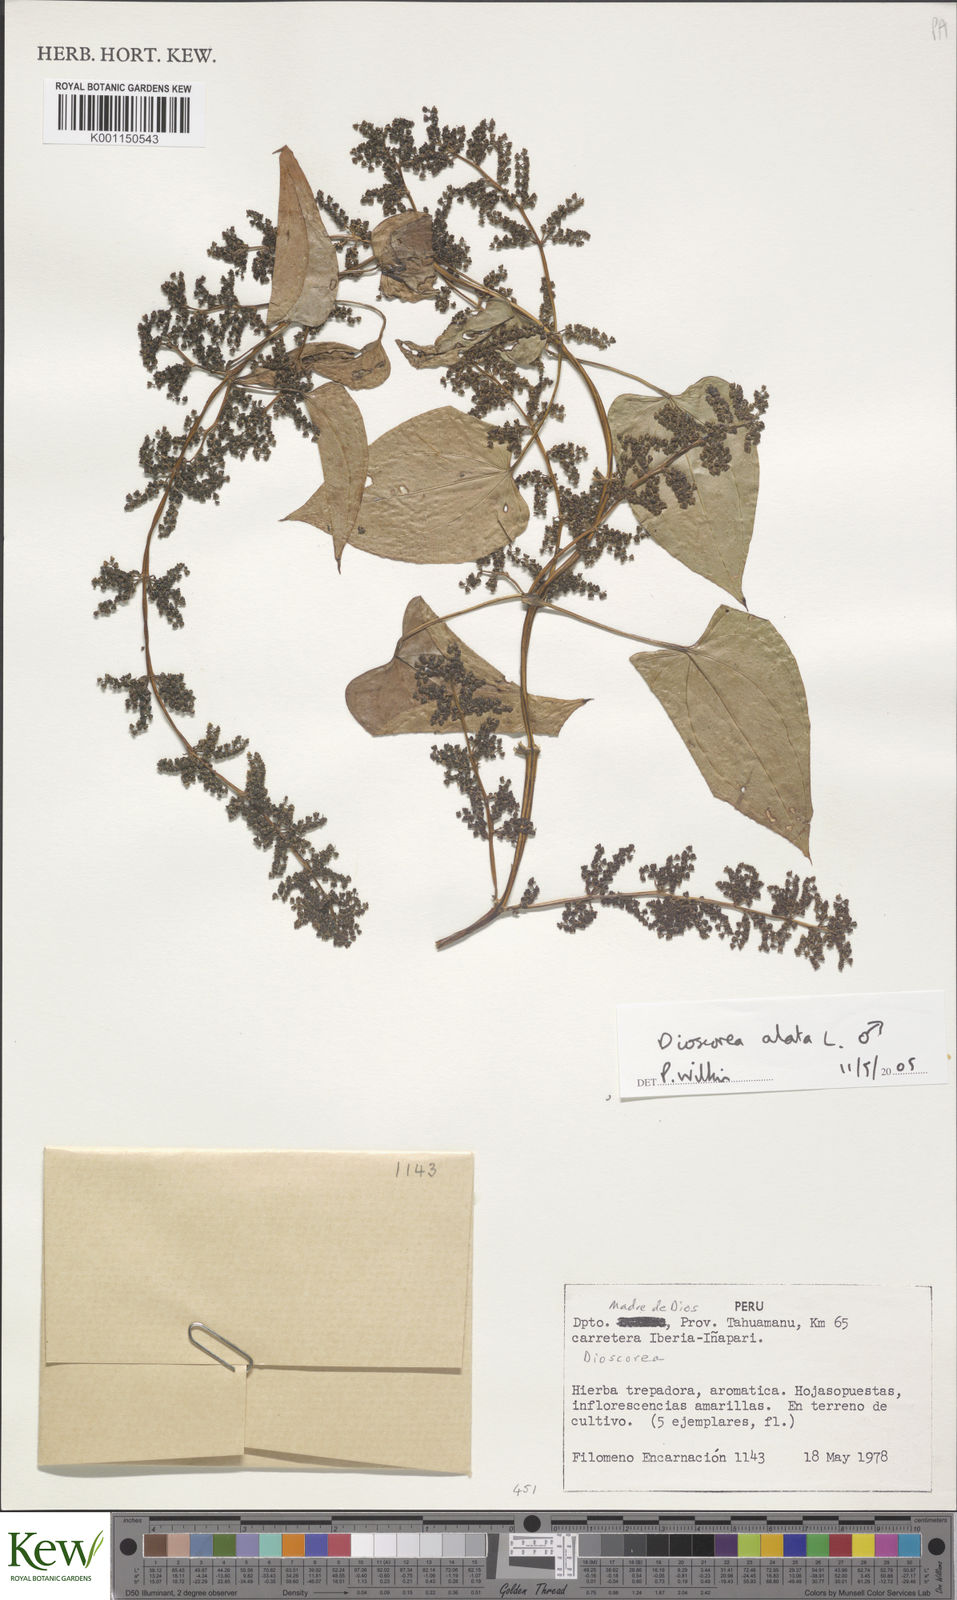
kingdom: Plantae
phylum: Tracheophyta
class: Liliopsida
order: Dioscoreales
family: Dioscoreaceae
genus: Dioscorea
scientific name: Dioscorea alata
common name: Water yam
